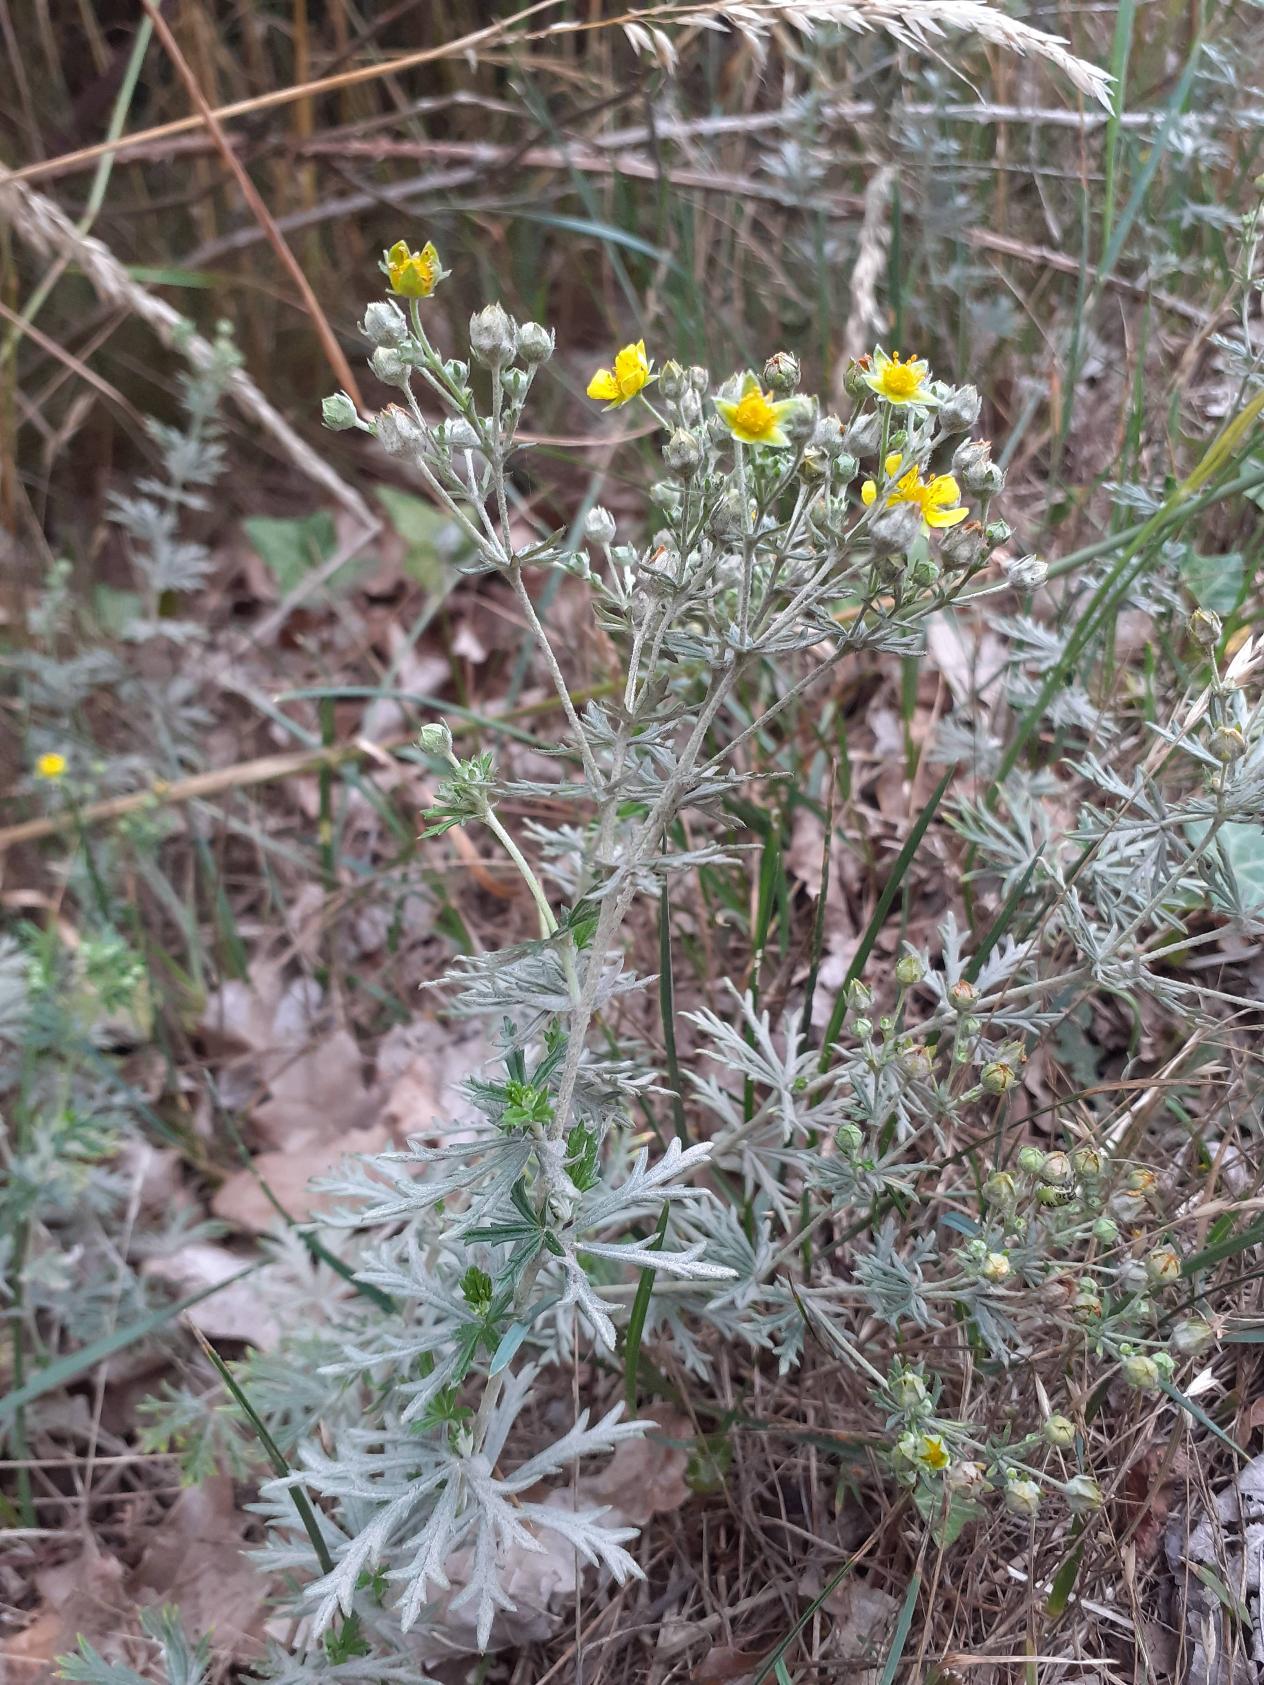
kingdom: Plantae
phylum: Tracheophyta
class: Magnoliopsida
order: Rosales
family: Rosaceae
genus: Potentilla
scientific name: Potentilla neglecta
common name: Håret sølv-potentil
